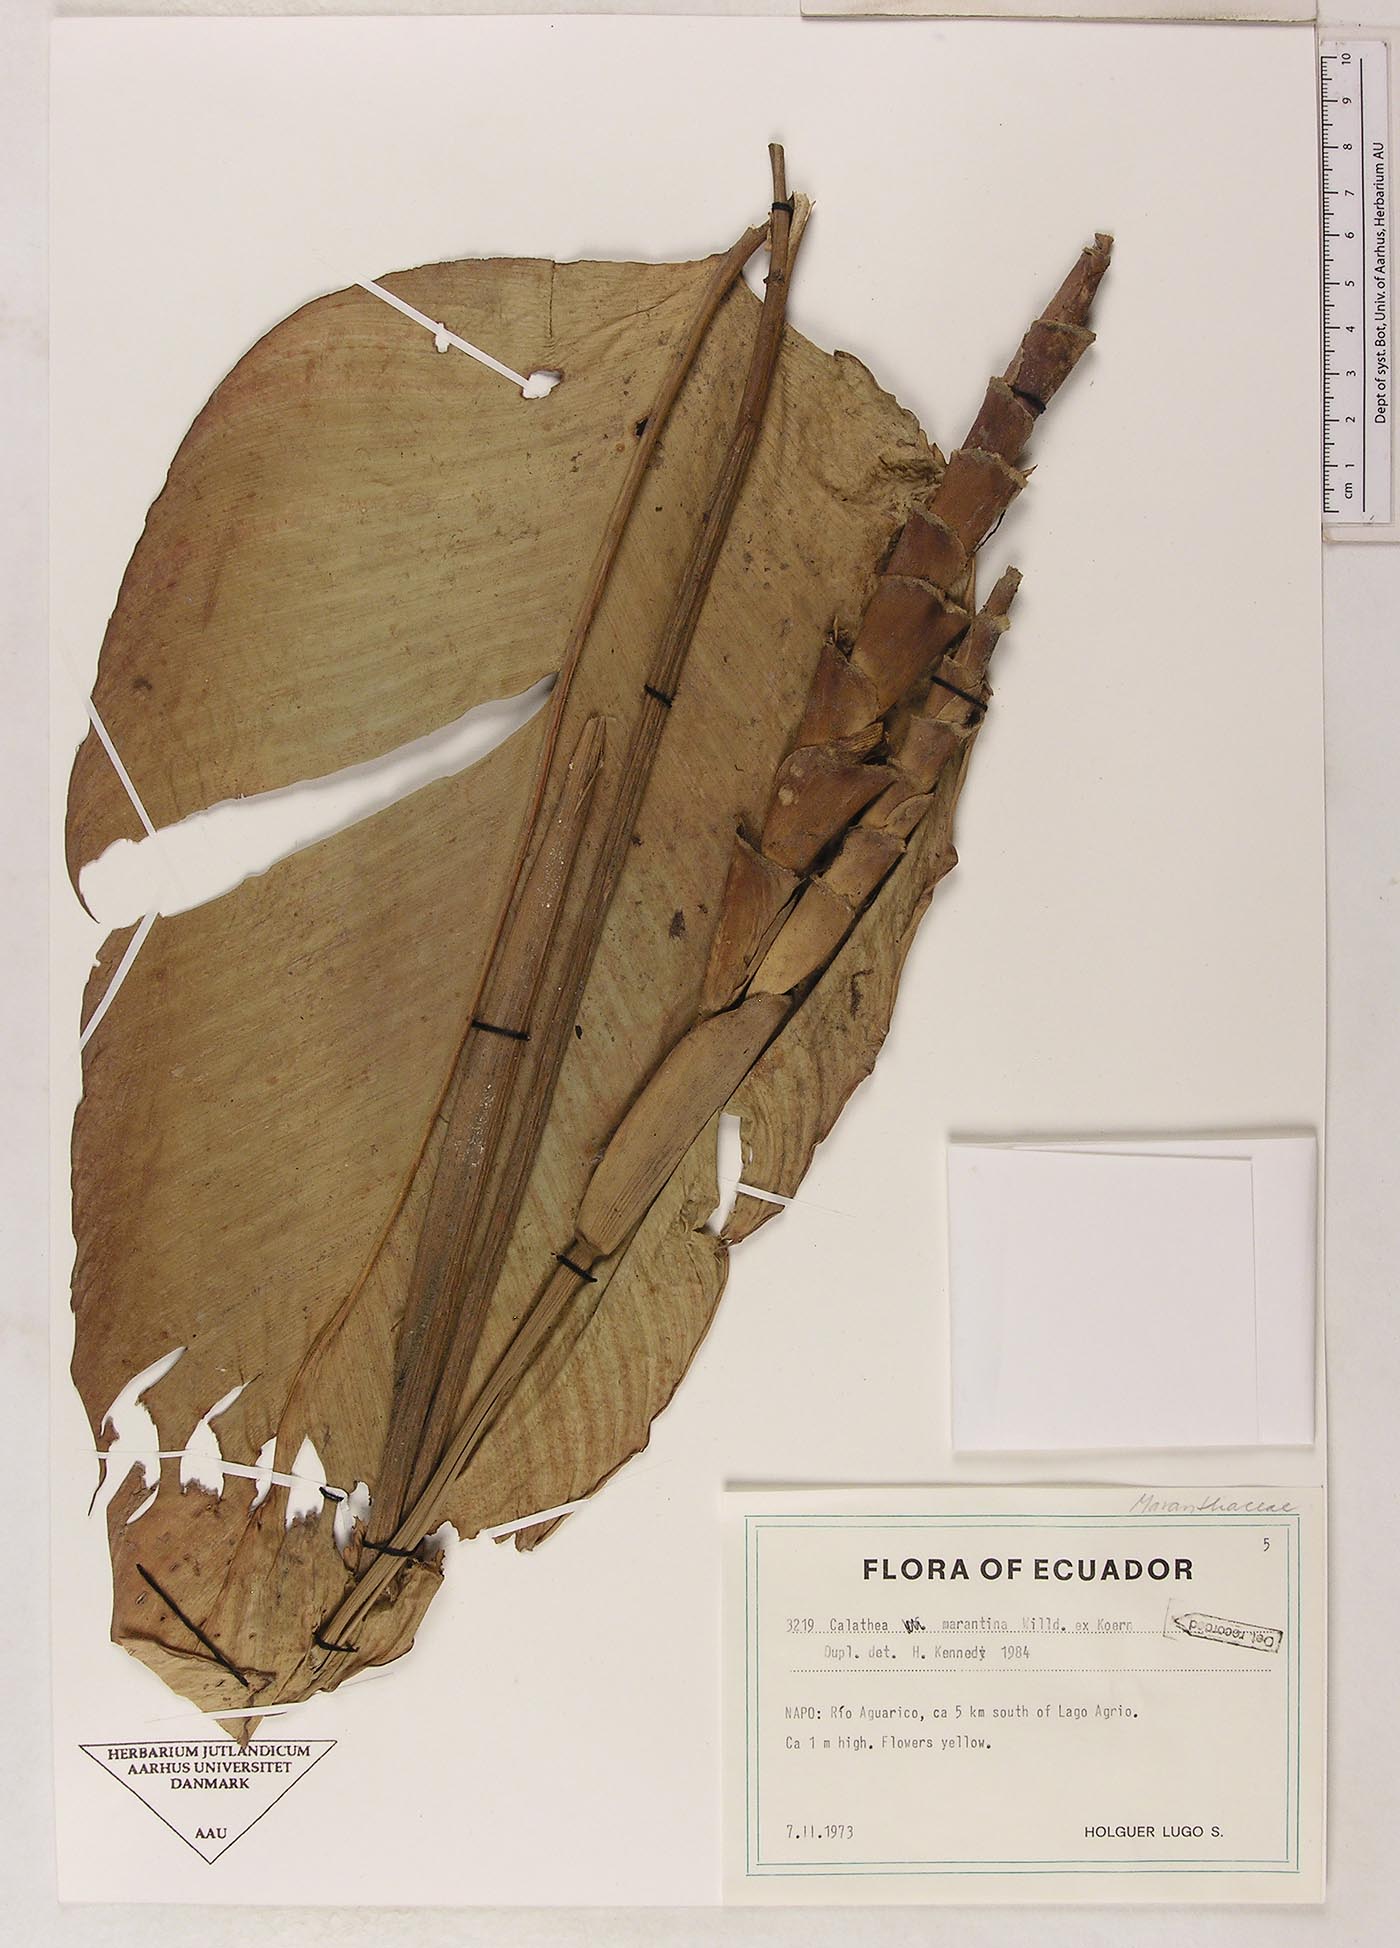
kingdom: Plantae
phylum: Tracheophyta
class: Liliopsida
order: Zingiberales
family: Marantaceae
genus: Calathea
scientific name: Calathea marantina
